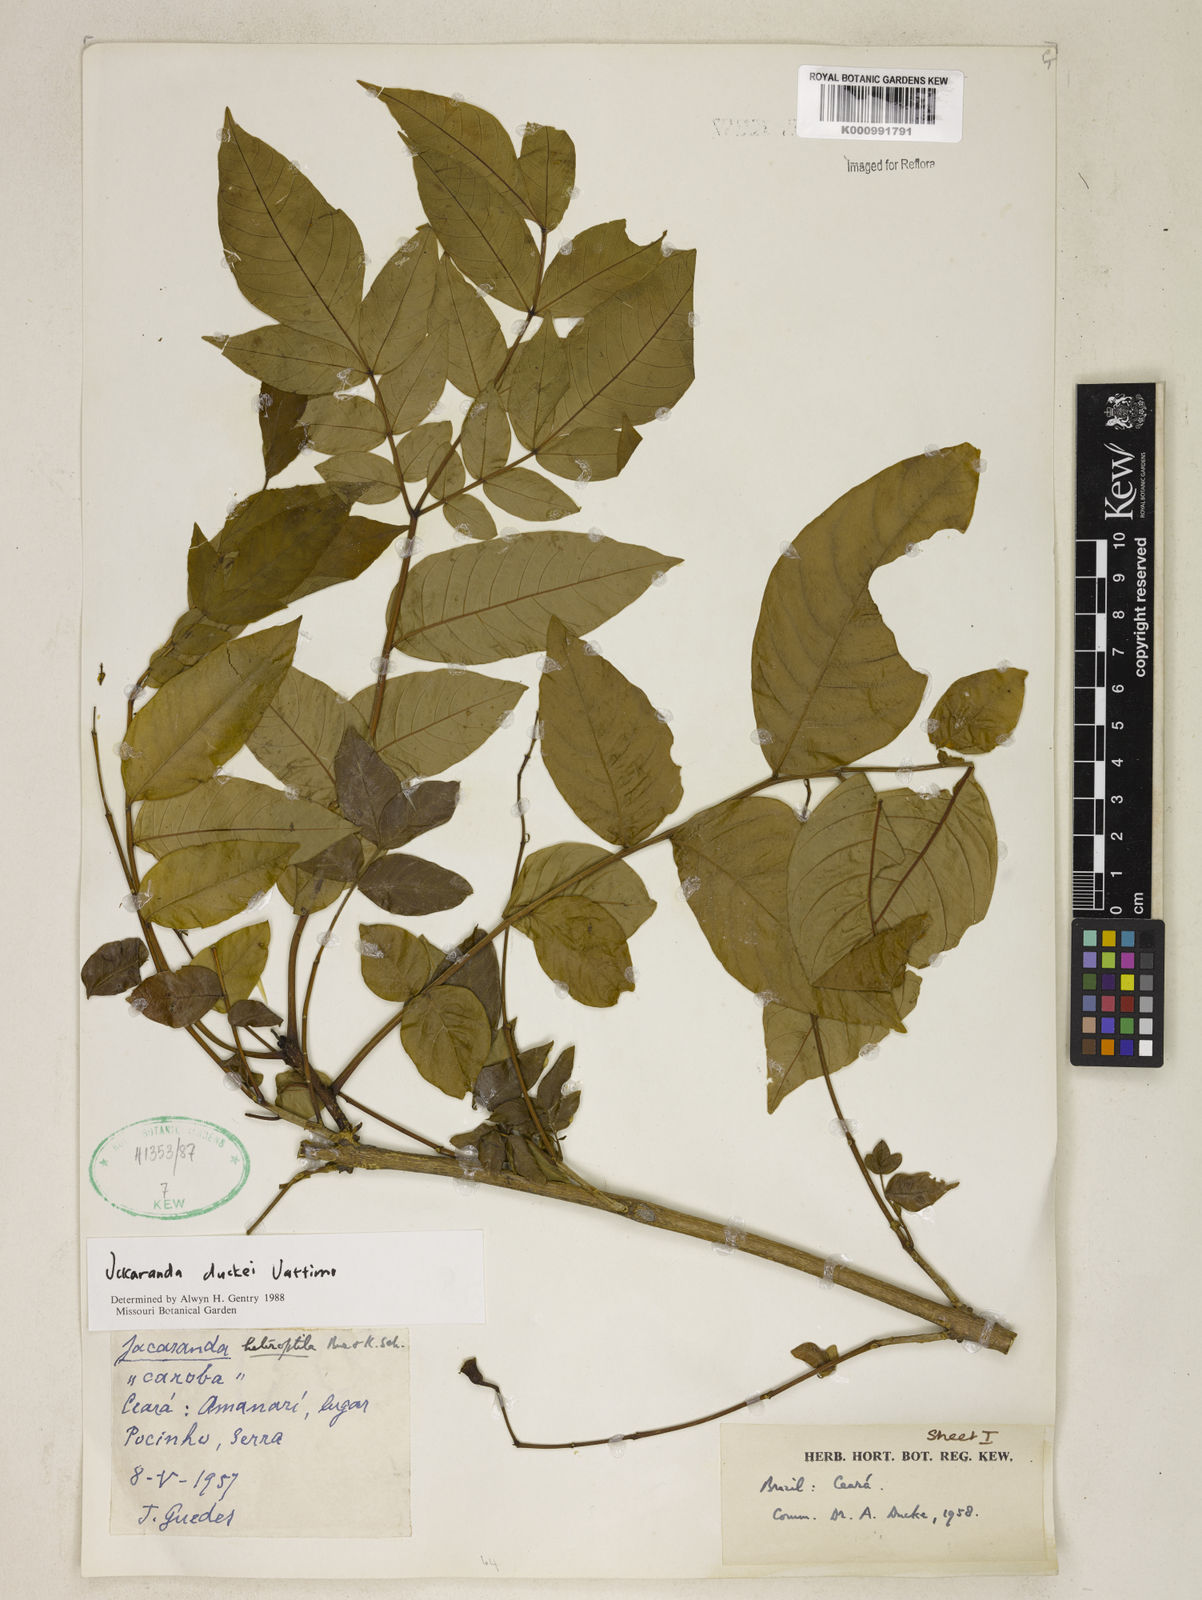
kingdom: Plantae
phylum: Tracheophyta
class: Magnoliopsida
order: Lamiales
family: Bignoniaceae
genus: Jacaranda
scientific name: Jacaranda duckei
